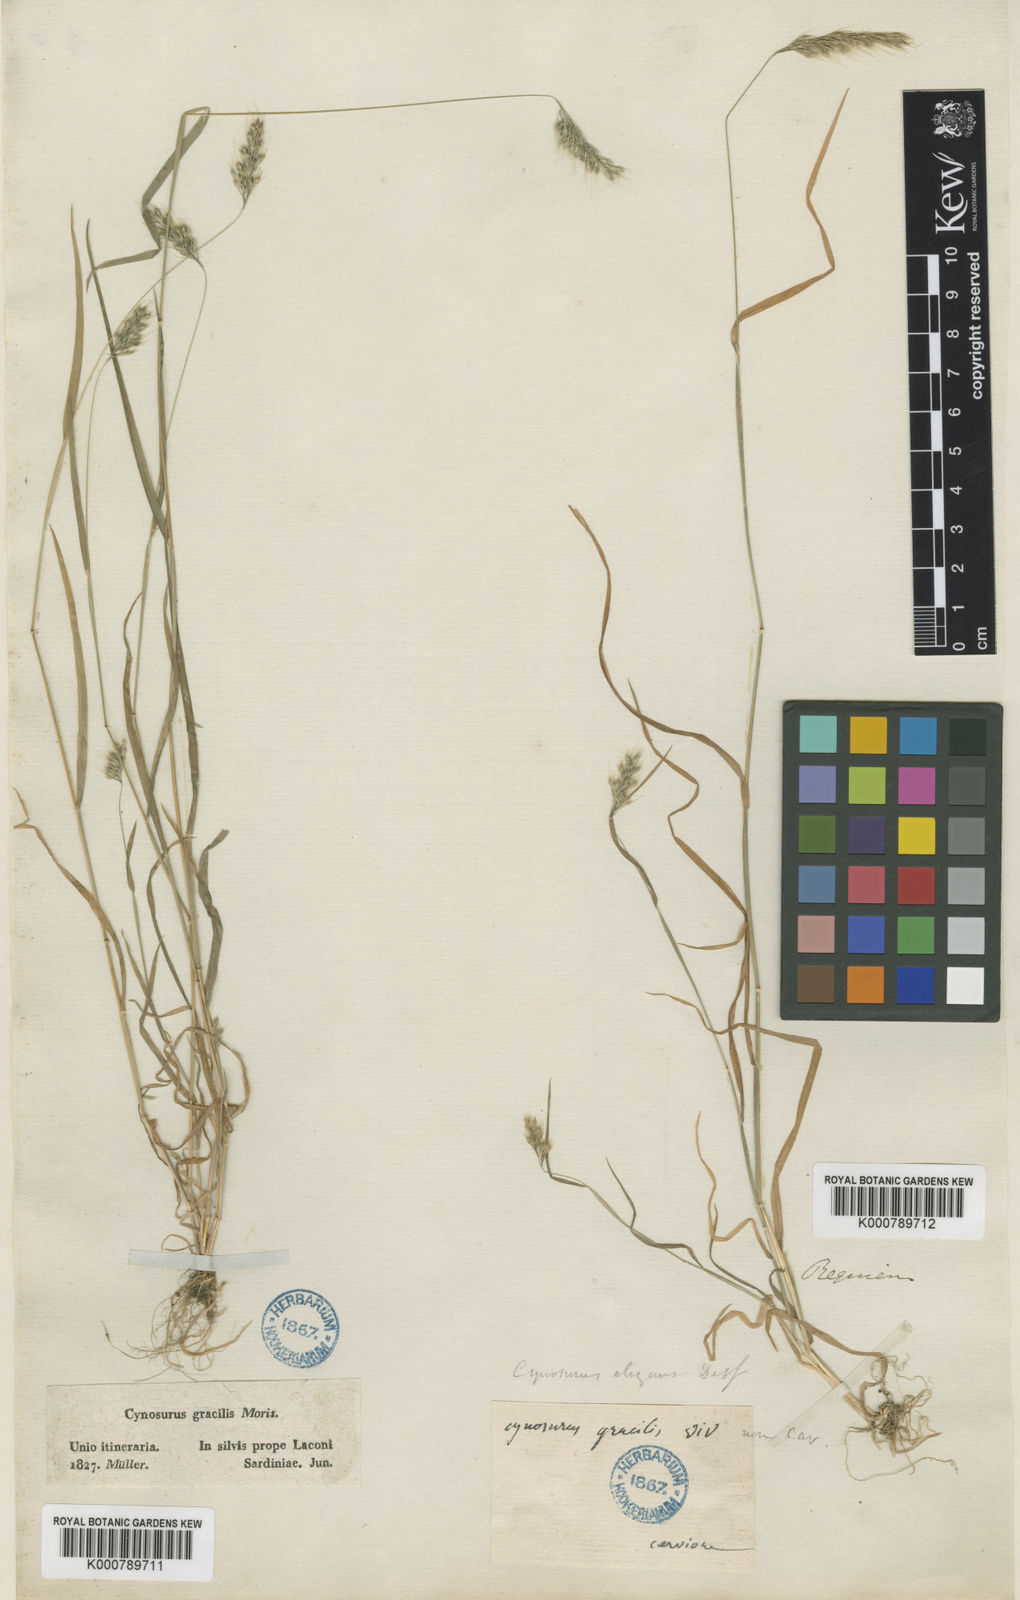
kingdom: Plantae
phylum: Tracheophyta
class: Liliopsida
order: Poales
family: Poaceae
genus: Cynosurus
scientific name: Cynosurus elegans
